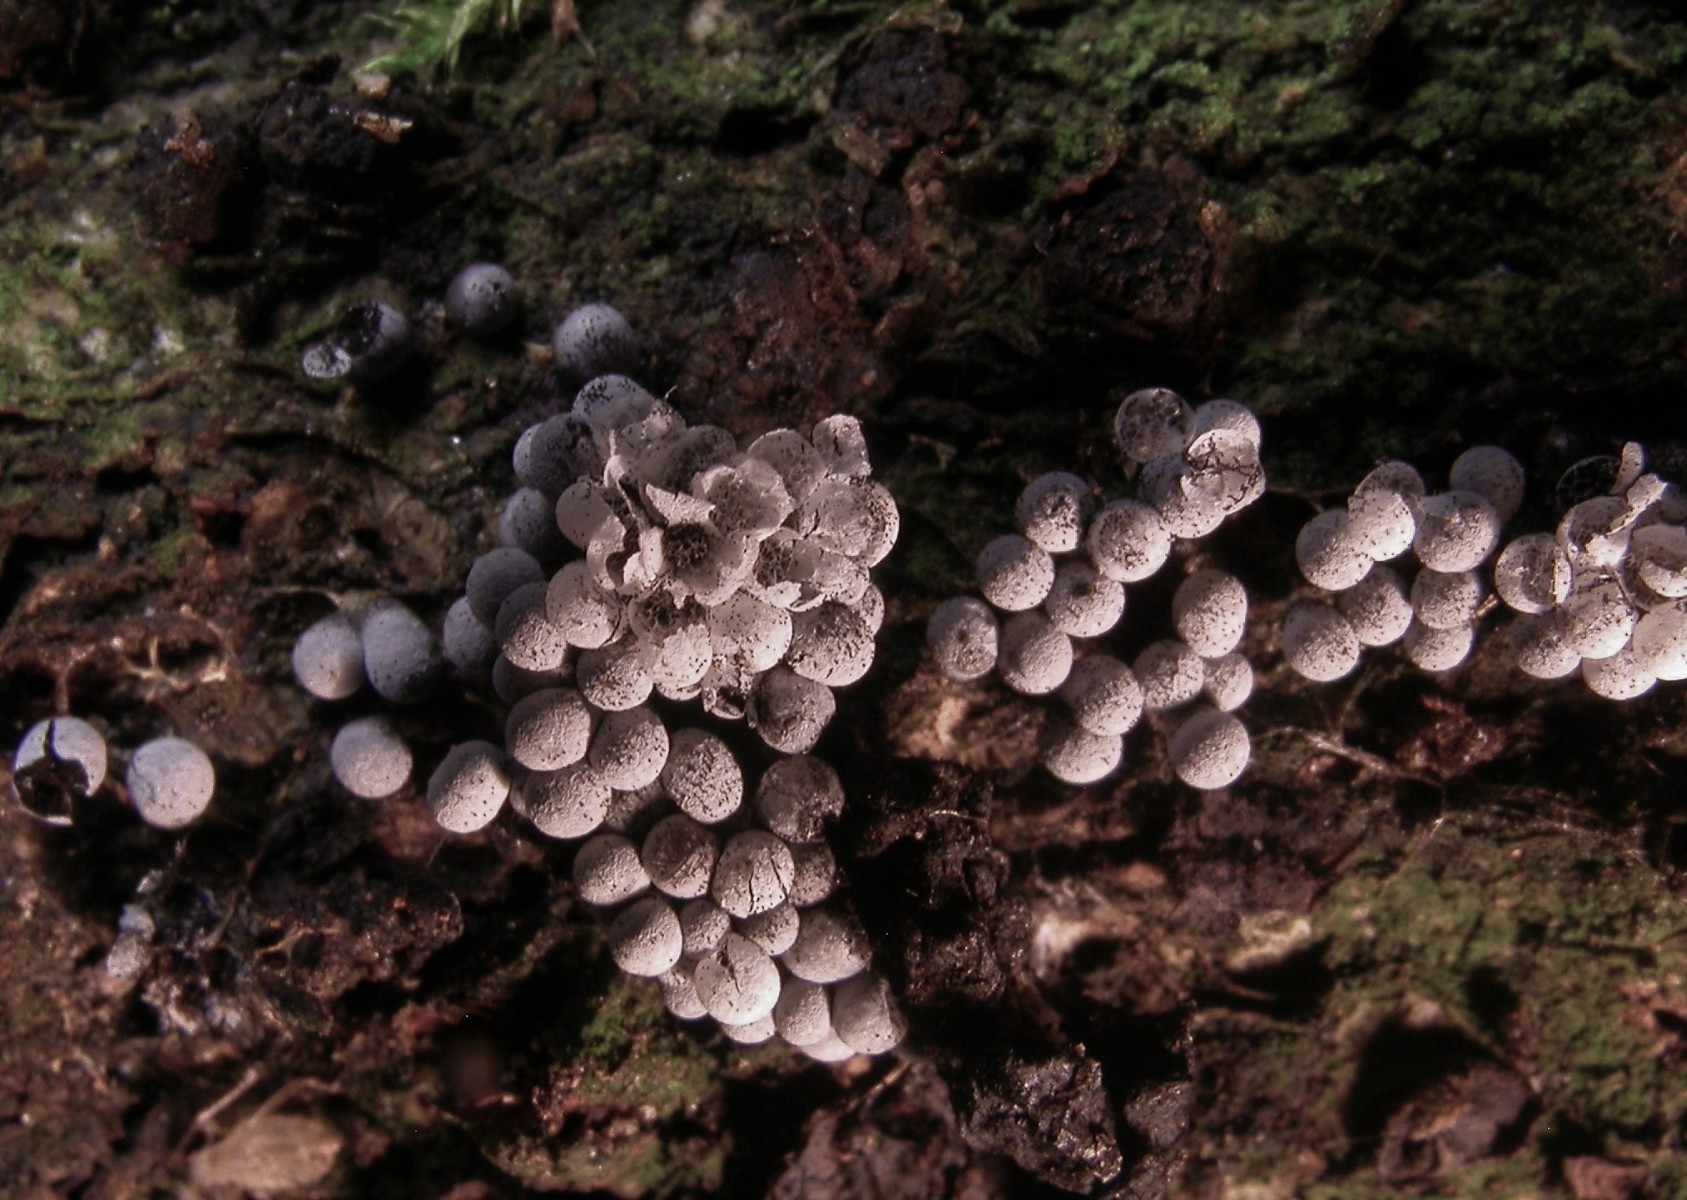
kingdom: Protozoa
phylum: Mycetozoa
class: Myxomycetes
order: Physarales
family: Physaraceae
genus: Badhamia
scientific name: Badhamia panicea
